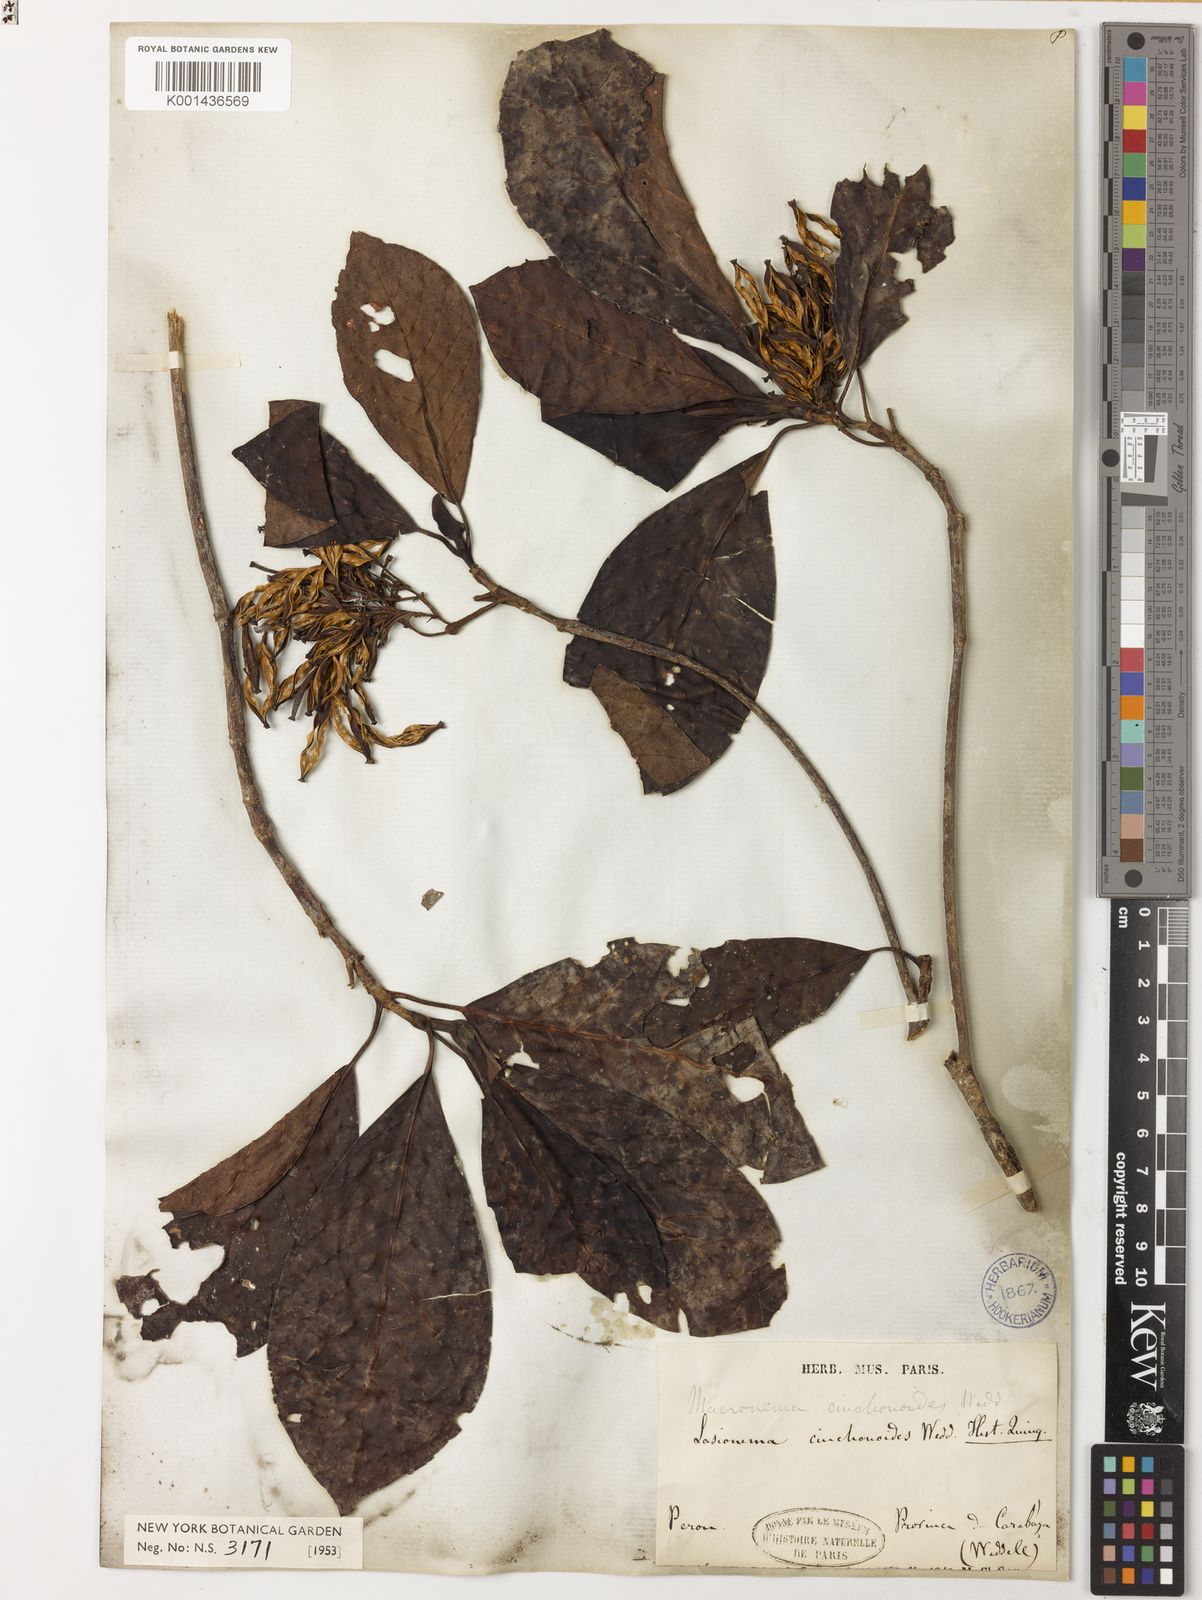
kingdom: Plantae
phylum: Tracheophyta
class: Magnoliopsida
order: Gentianales
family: Rubiaceae
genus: Macrocnemum
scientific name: Macrocnemum roseum
